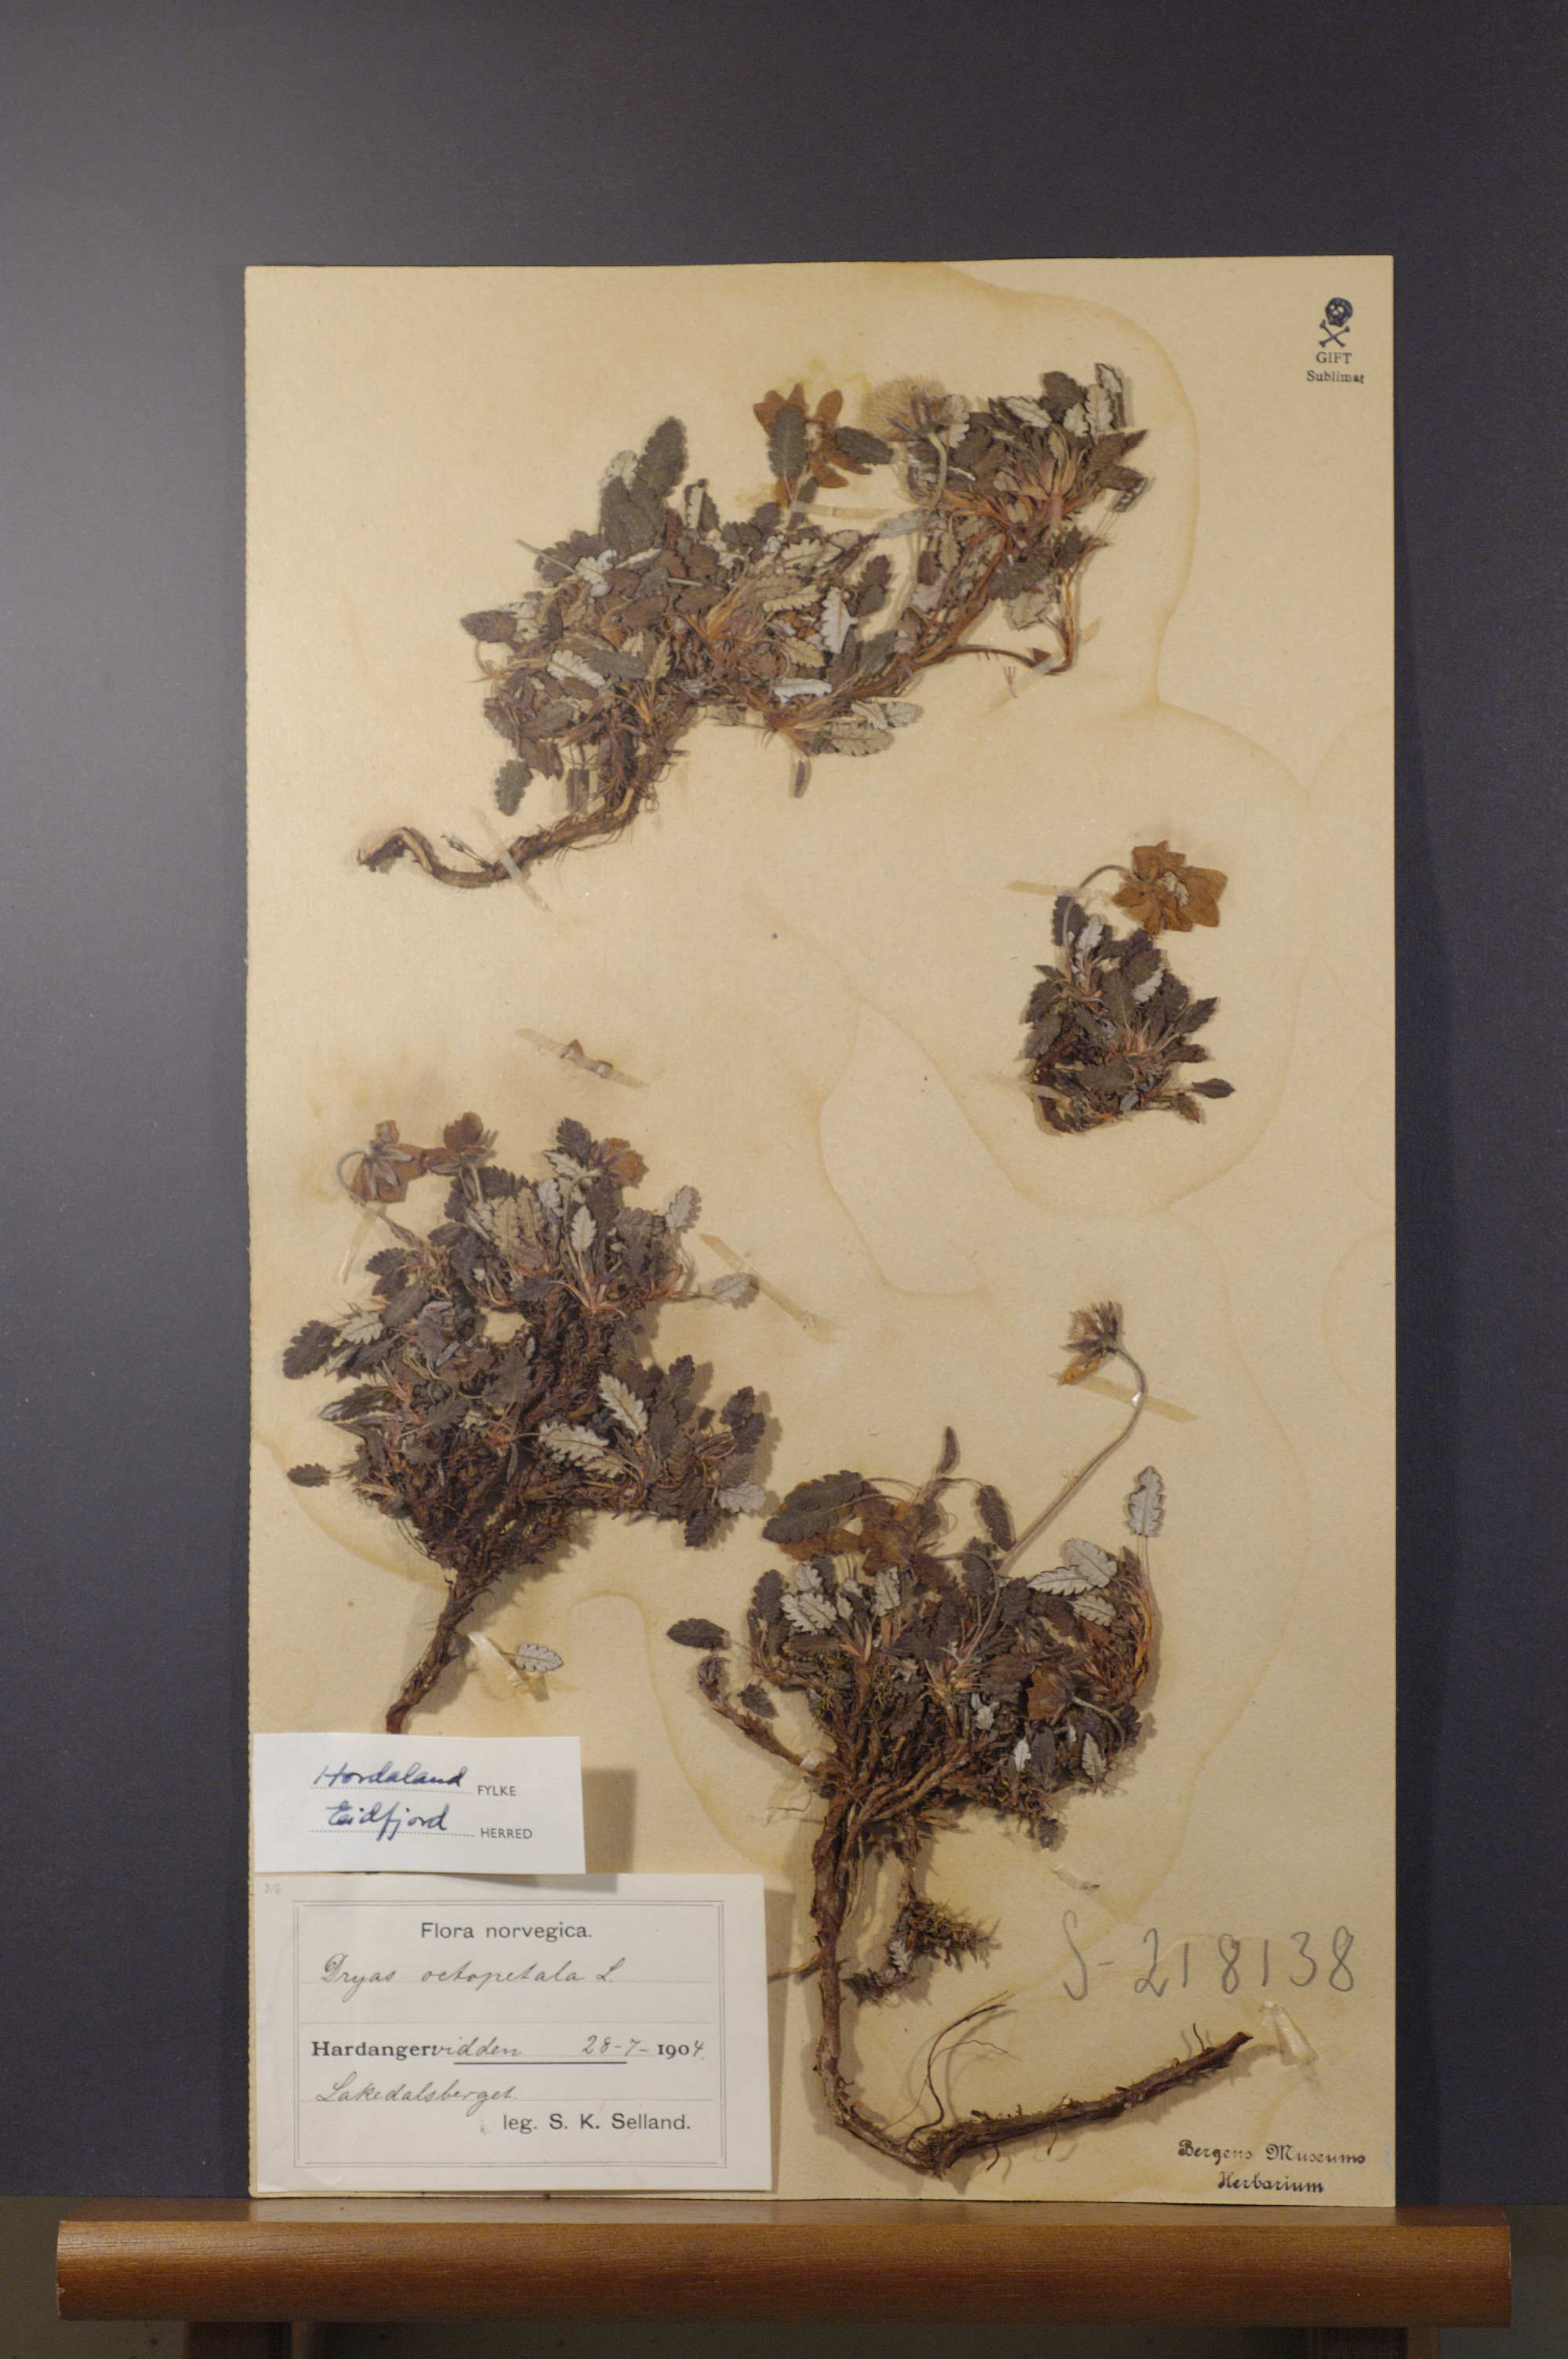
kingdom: Plantae
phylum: Tracheophyta
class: Magnoliopsida
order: Rosales
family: Rosaceae
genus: Dryas
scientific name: Dryas octopetala
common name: Eight-petal mountain-avens
